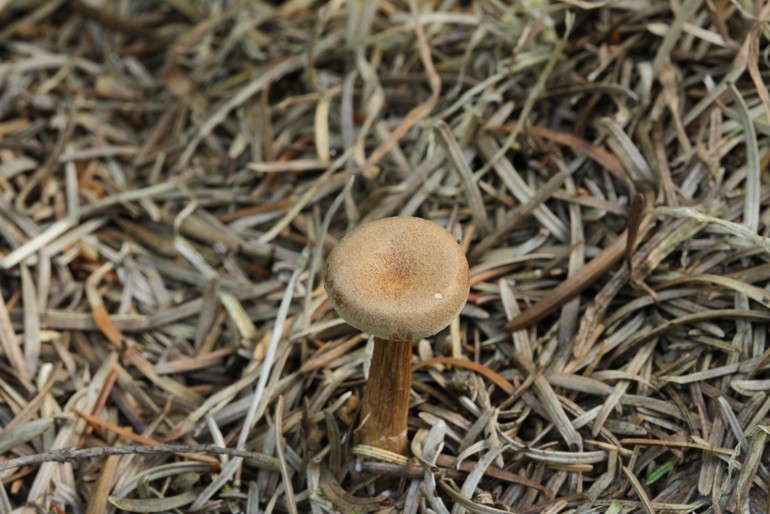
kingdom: Fungi
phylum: Basidiomycota
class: Agaricomycetes
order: Agaricales
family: Tricholomataceae
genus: Infundibulicybe
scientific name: Infundibulicybe squamulosa
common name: småskællet tragthat
